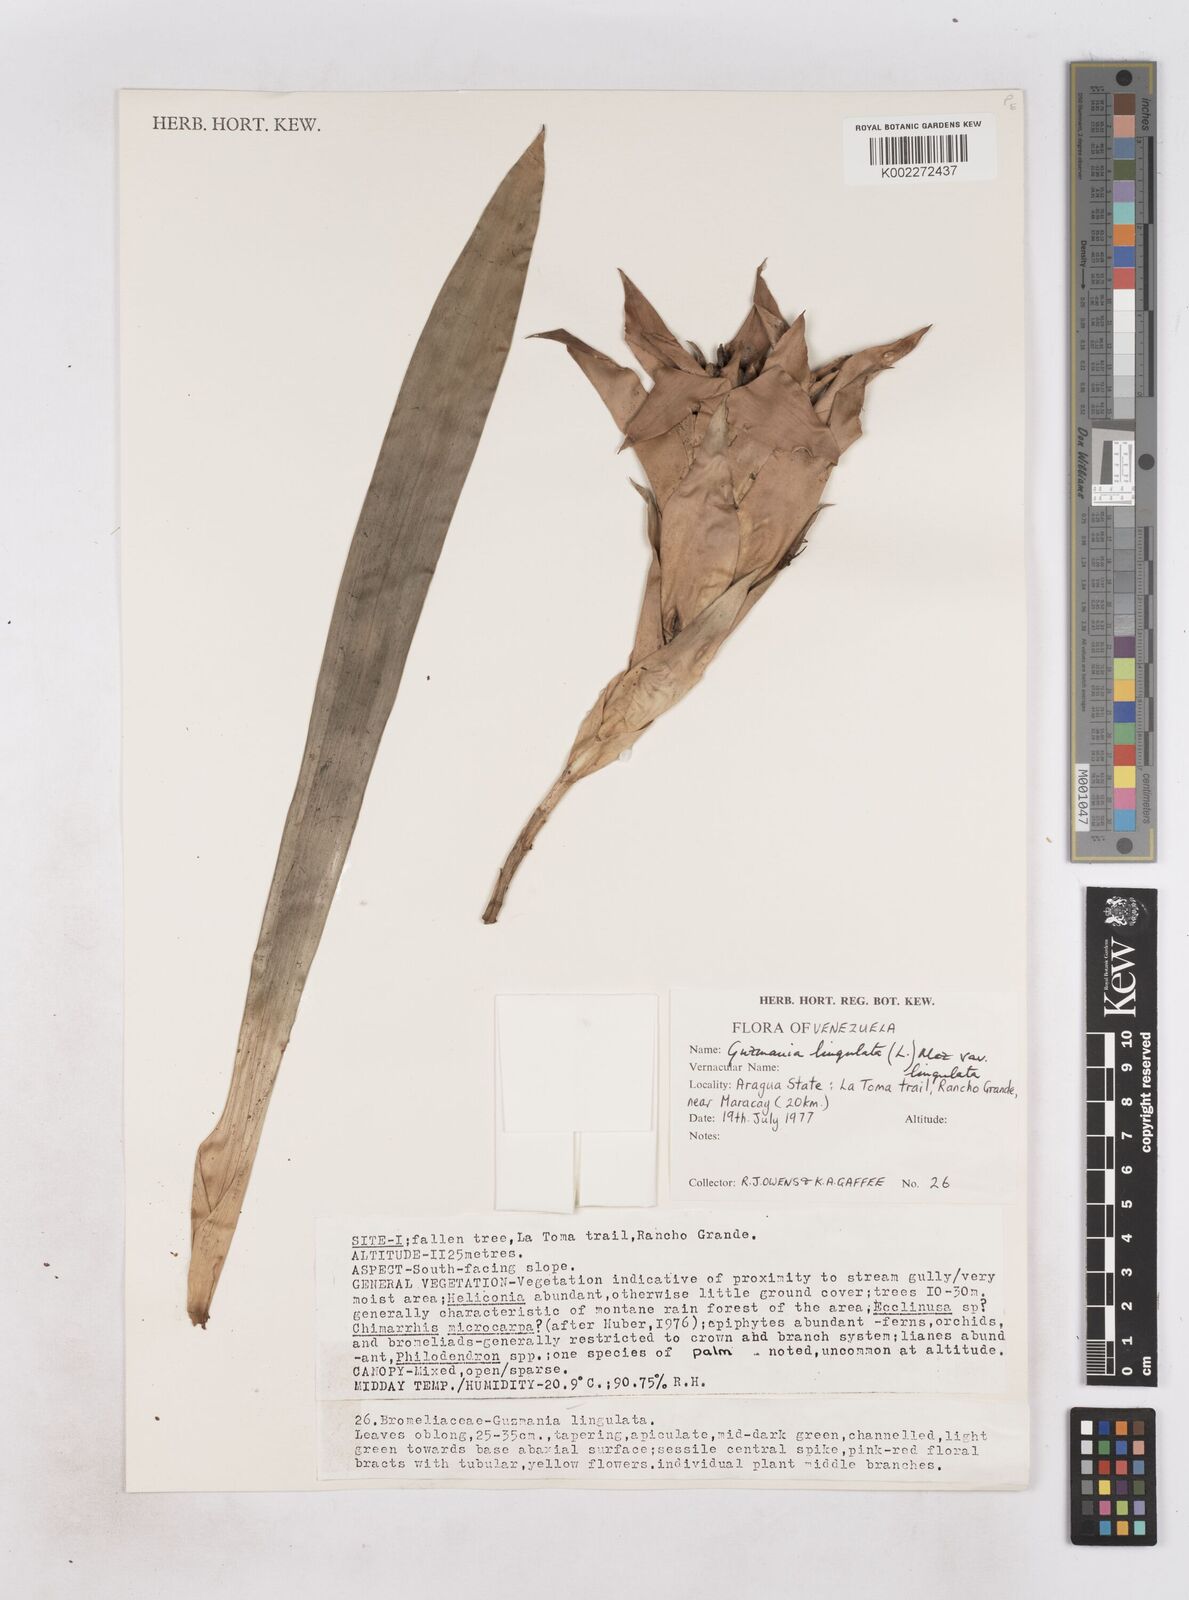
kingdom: Plantae
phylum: Tracheophyta
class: Liliopsida
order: Poales
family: Bromeliaceae
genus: Guzmania
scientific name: Guzmania lingulata
